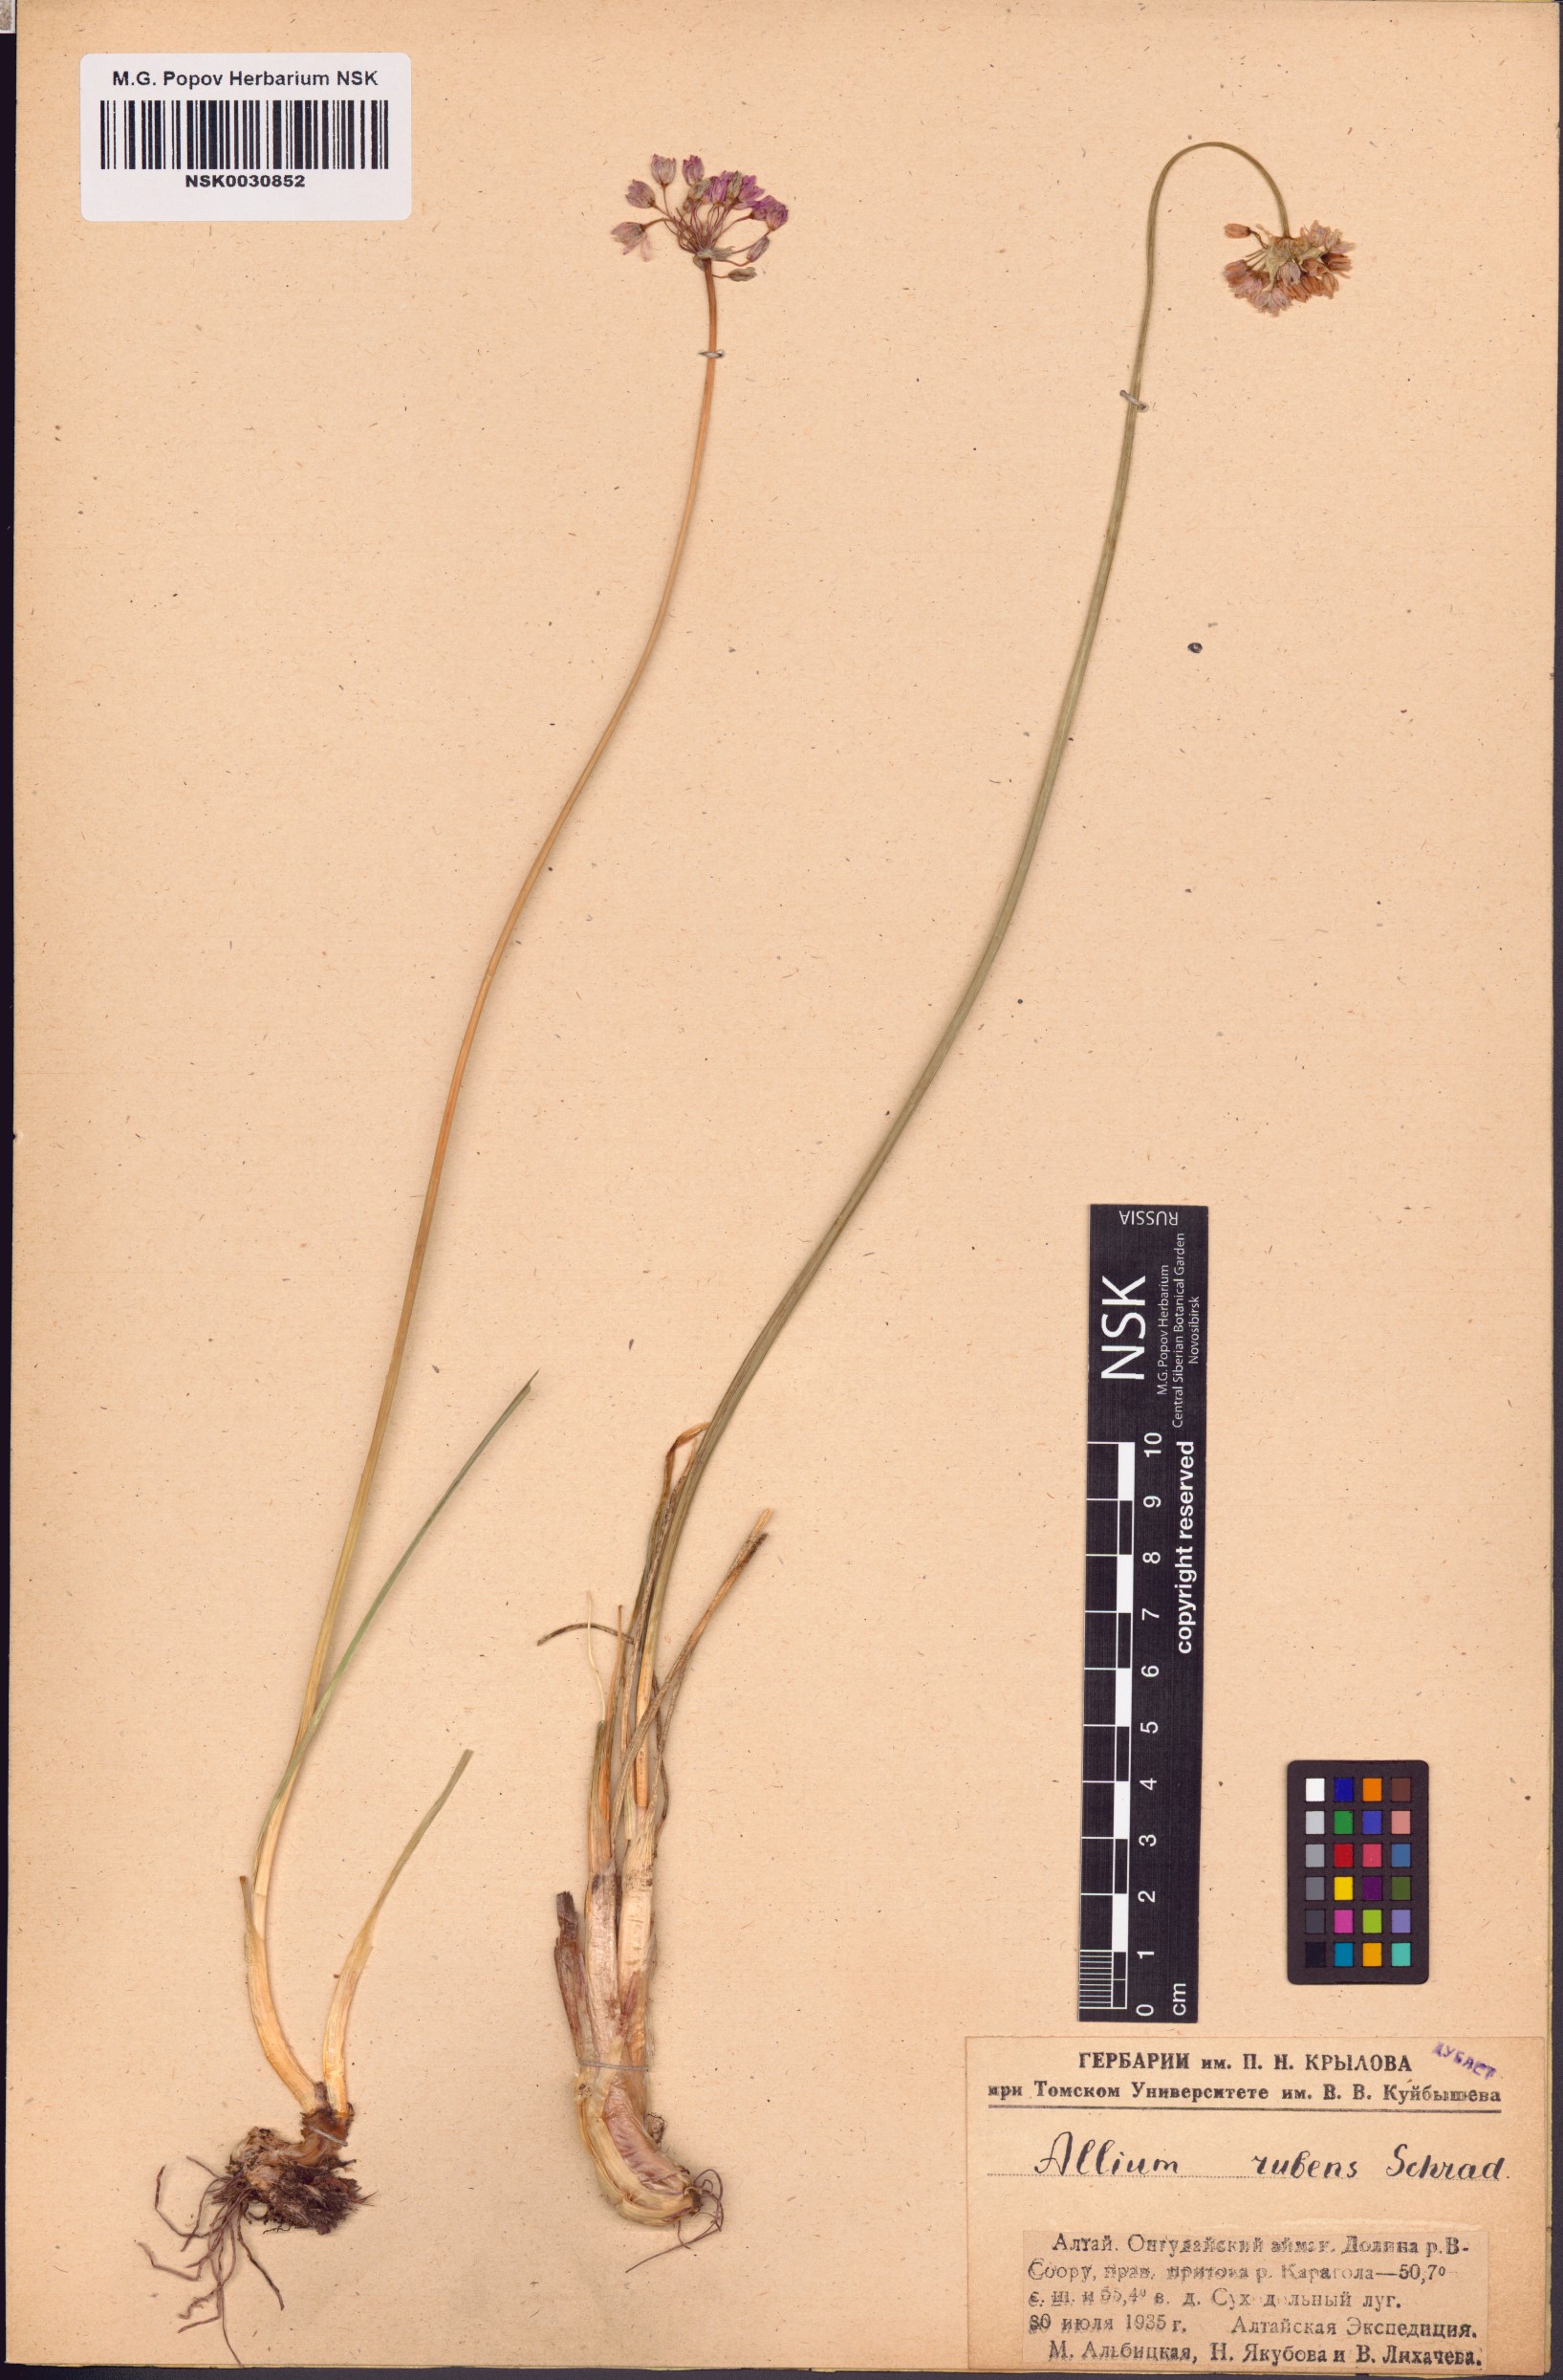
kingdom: Plantae
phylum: Tracheophyta
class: Liliopsida
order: Asparagales
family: Amaryllidaceae
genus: Allium
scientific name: Allium rubens
